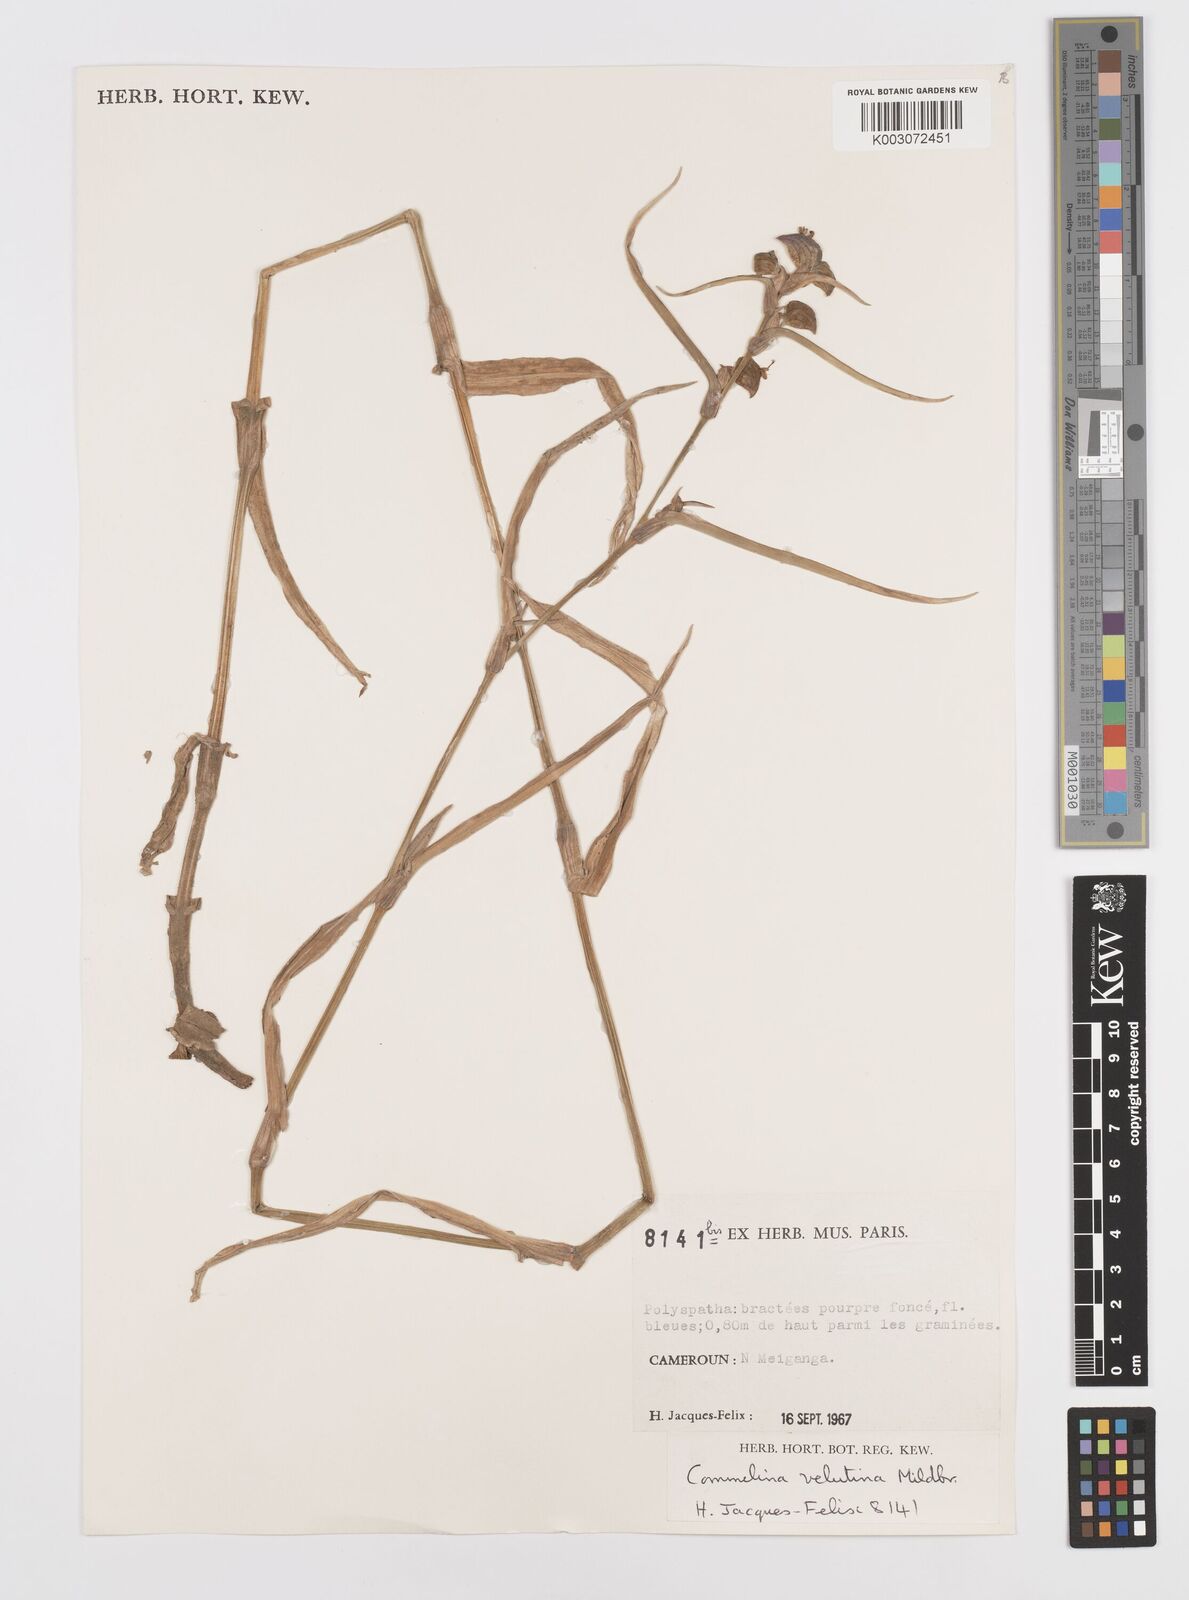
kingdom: Plantae
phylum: Tracheophyta
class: Liliopsida
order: Commelinales
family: Commelinaceae
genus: Commelina
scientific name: Commelina velutina
